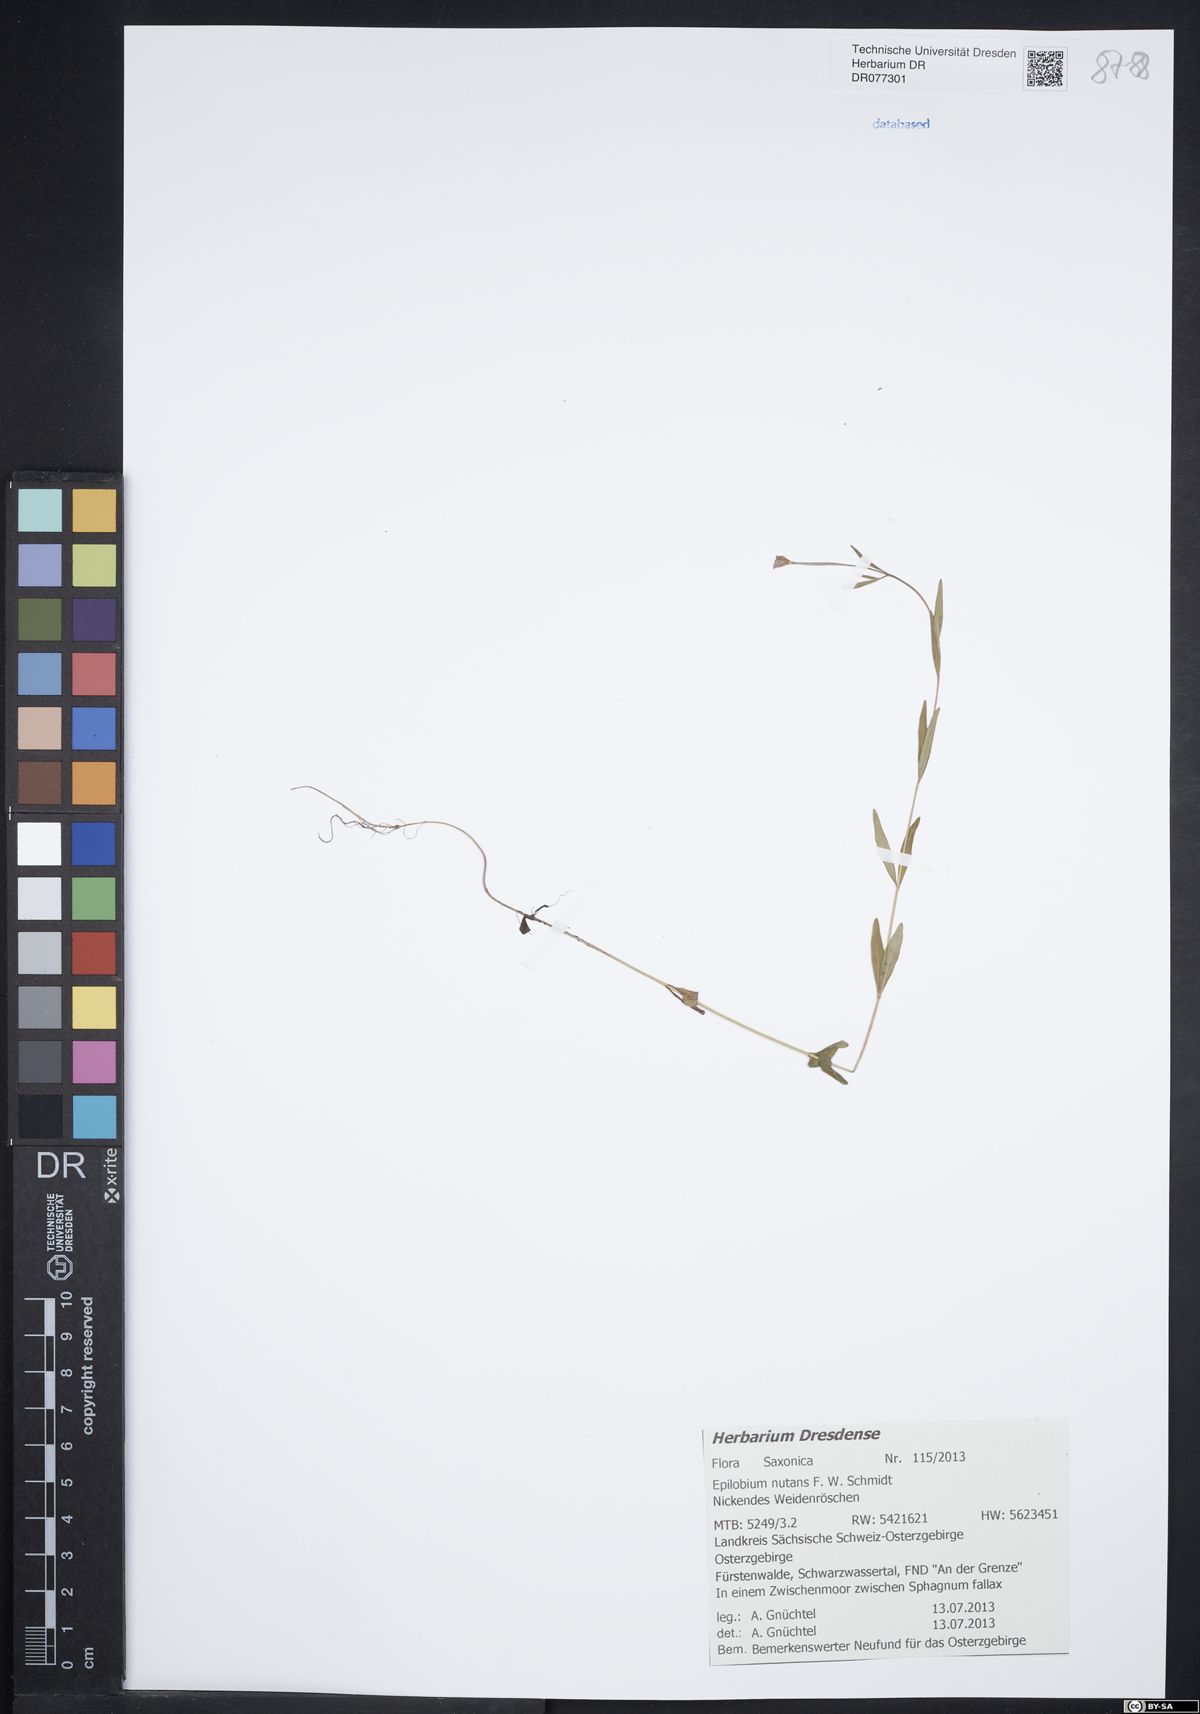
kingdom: Plantae
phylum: Tracheophyta
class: Magnoliopsida
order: Myrtales
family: Onagraceae
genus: Epilobium
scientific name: Epilobium nutans
